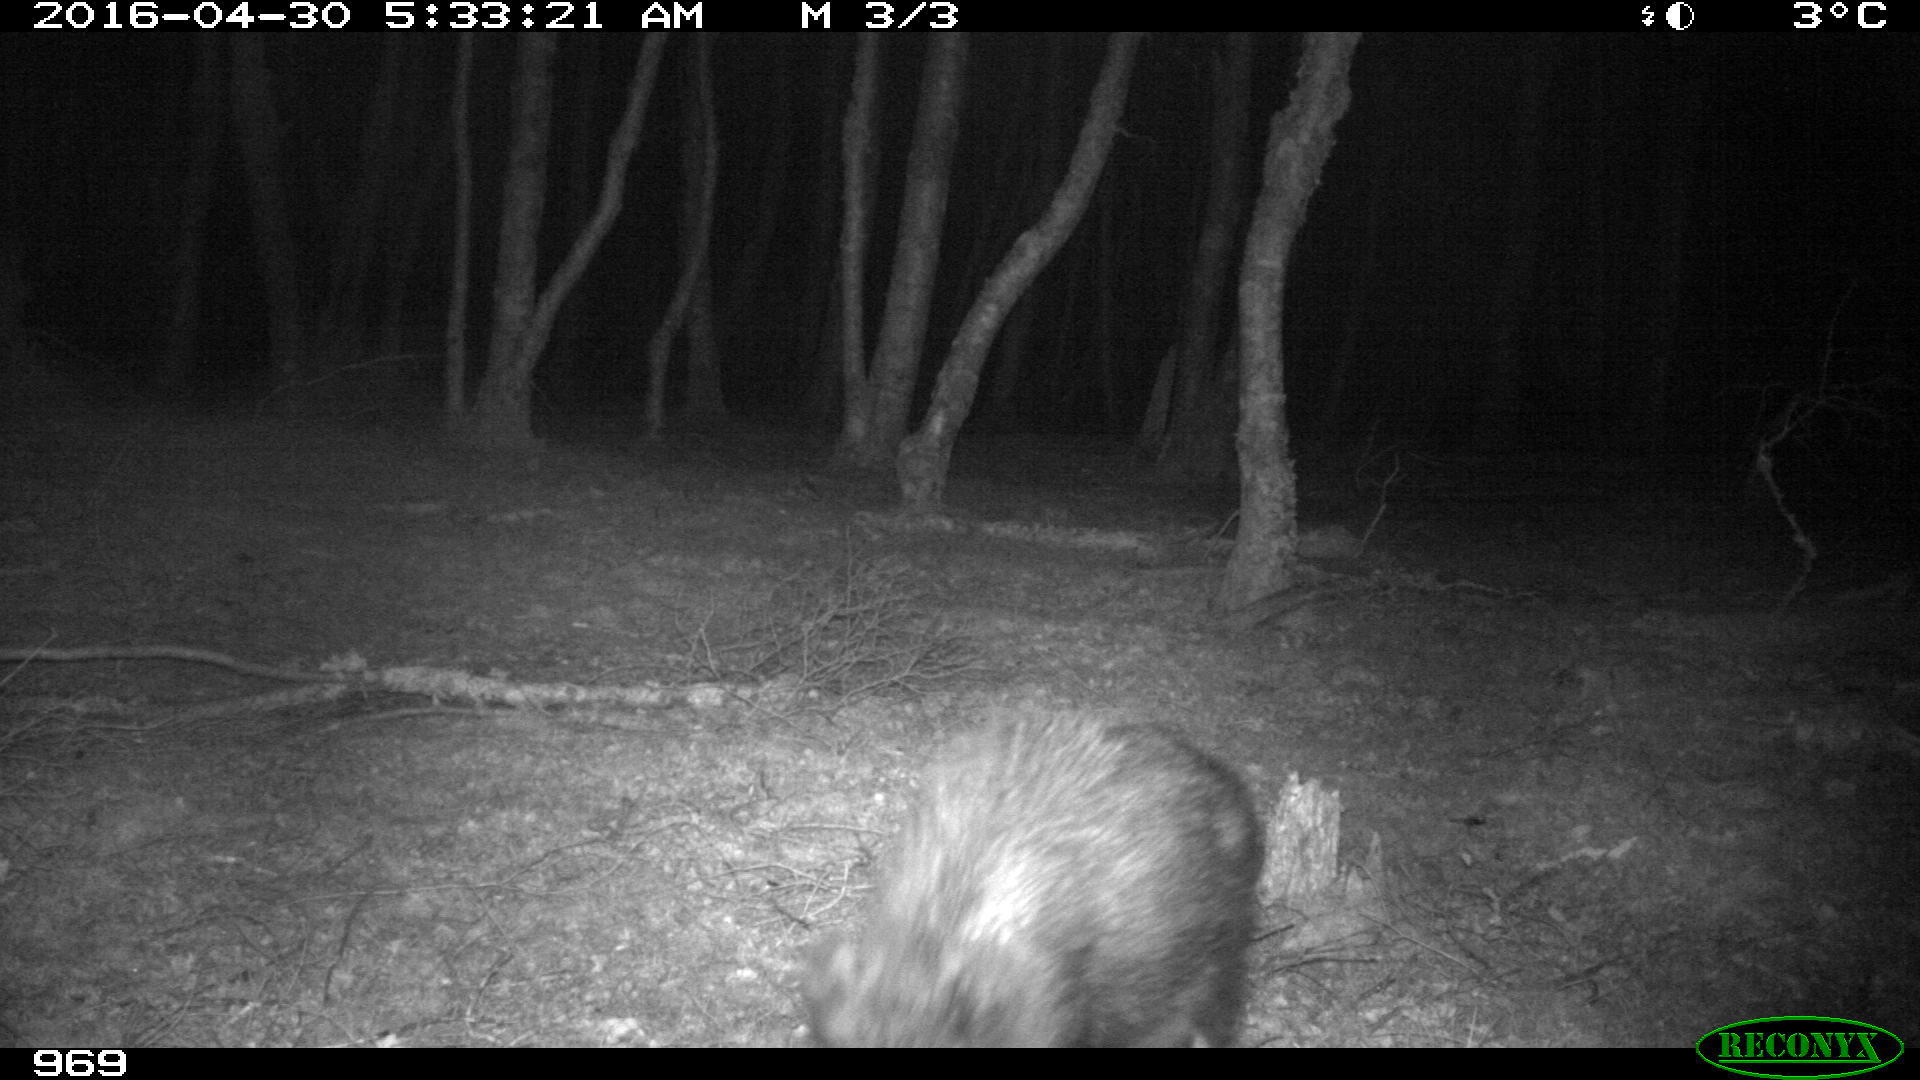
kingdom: Animalia
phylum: Chordata
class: Mammalia
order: Artiodactyla
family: Suidae
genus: Sus
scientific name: Sus scrofa
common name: Wild boar
